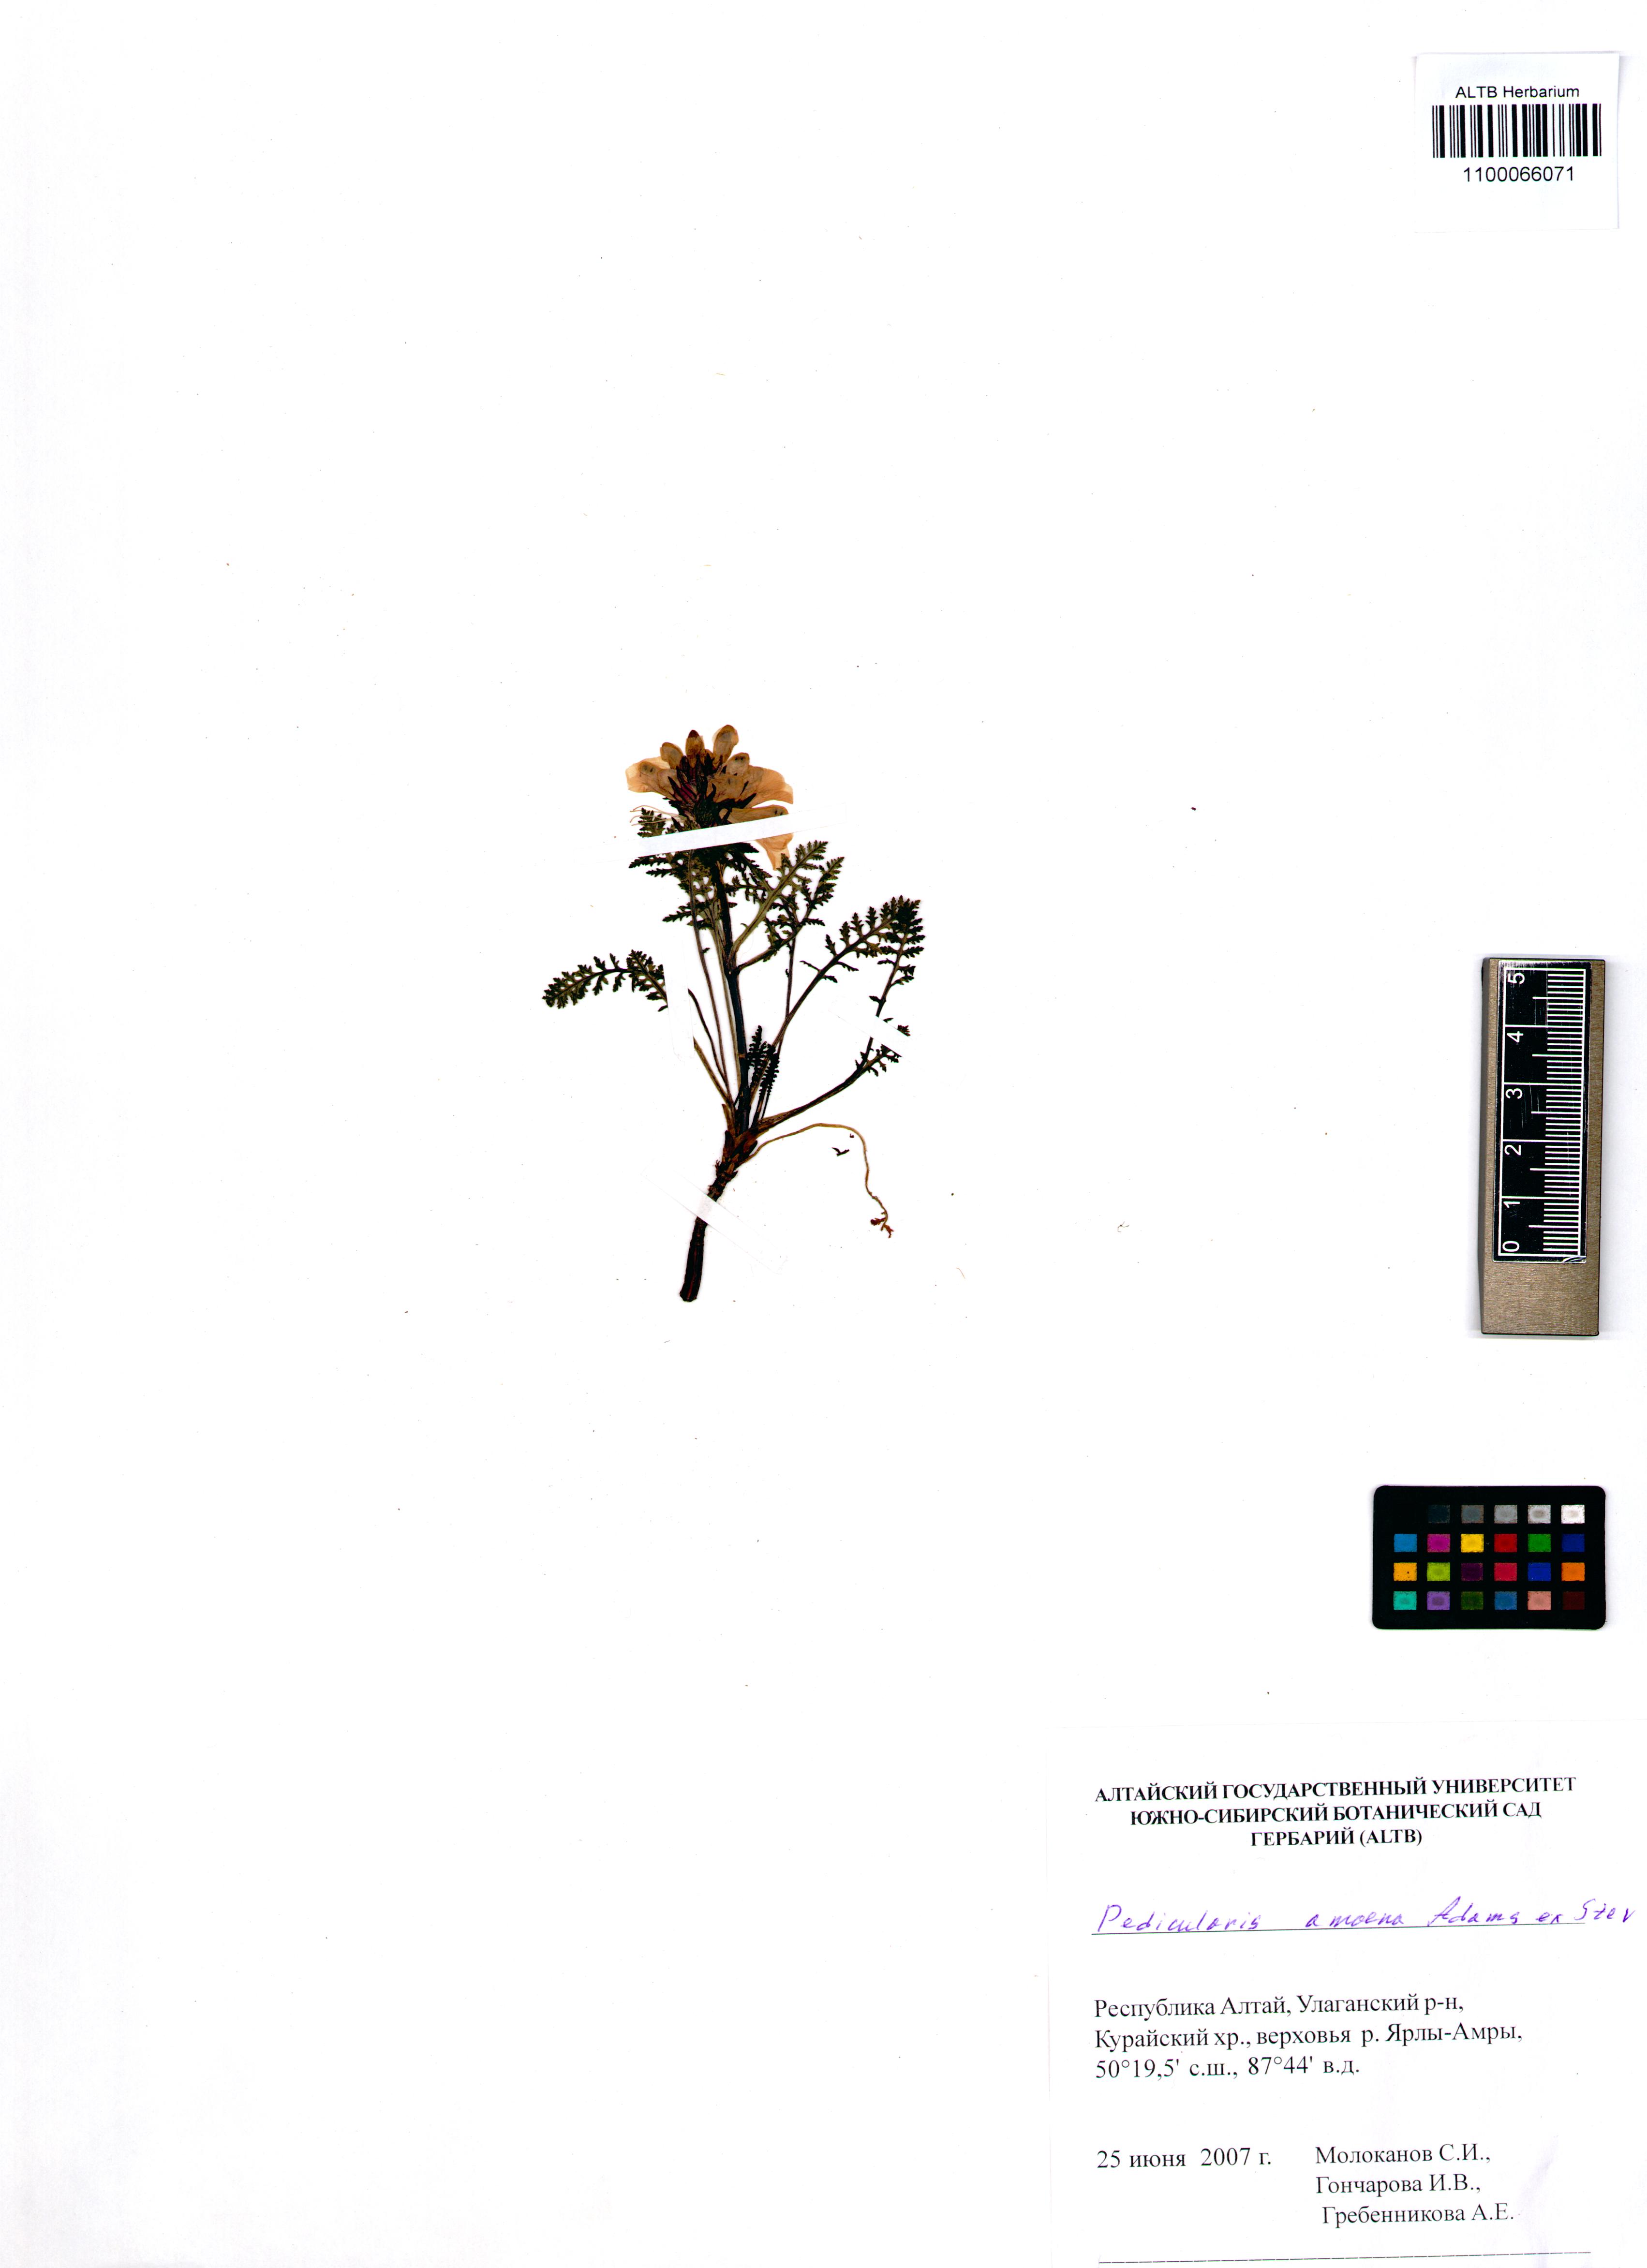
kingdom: Plantae
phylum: Tracheophyta
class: Magnoliopsida
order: Lamiales
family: Orobanchaceae
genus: Pedicularis
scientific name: Pedicularis amoena
